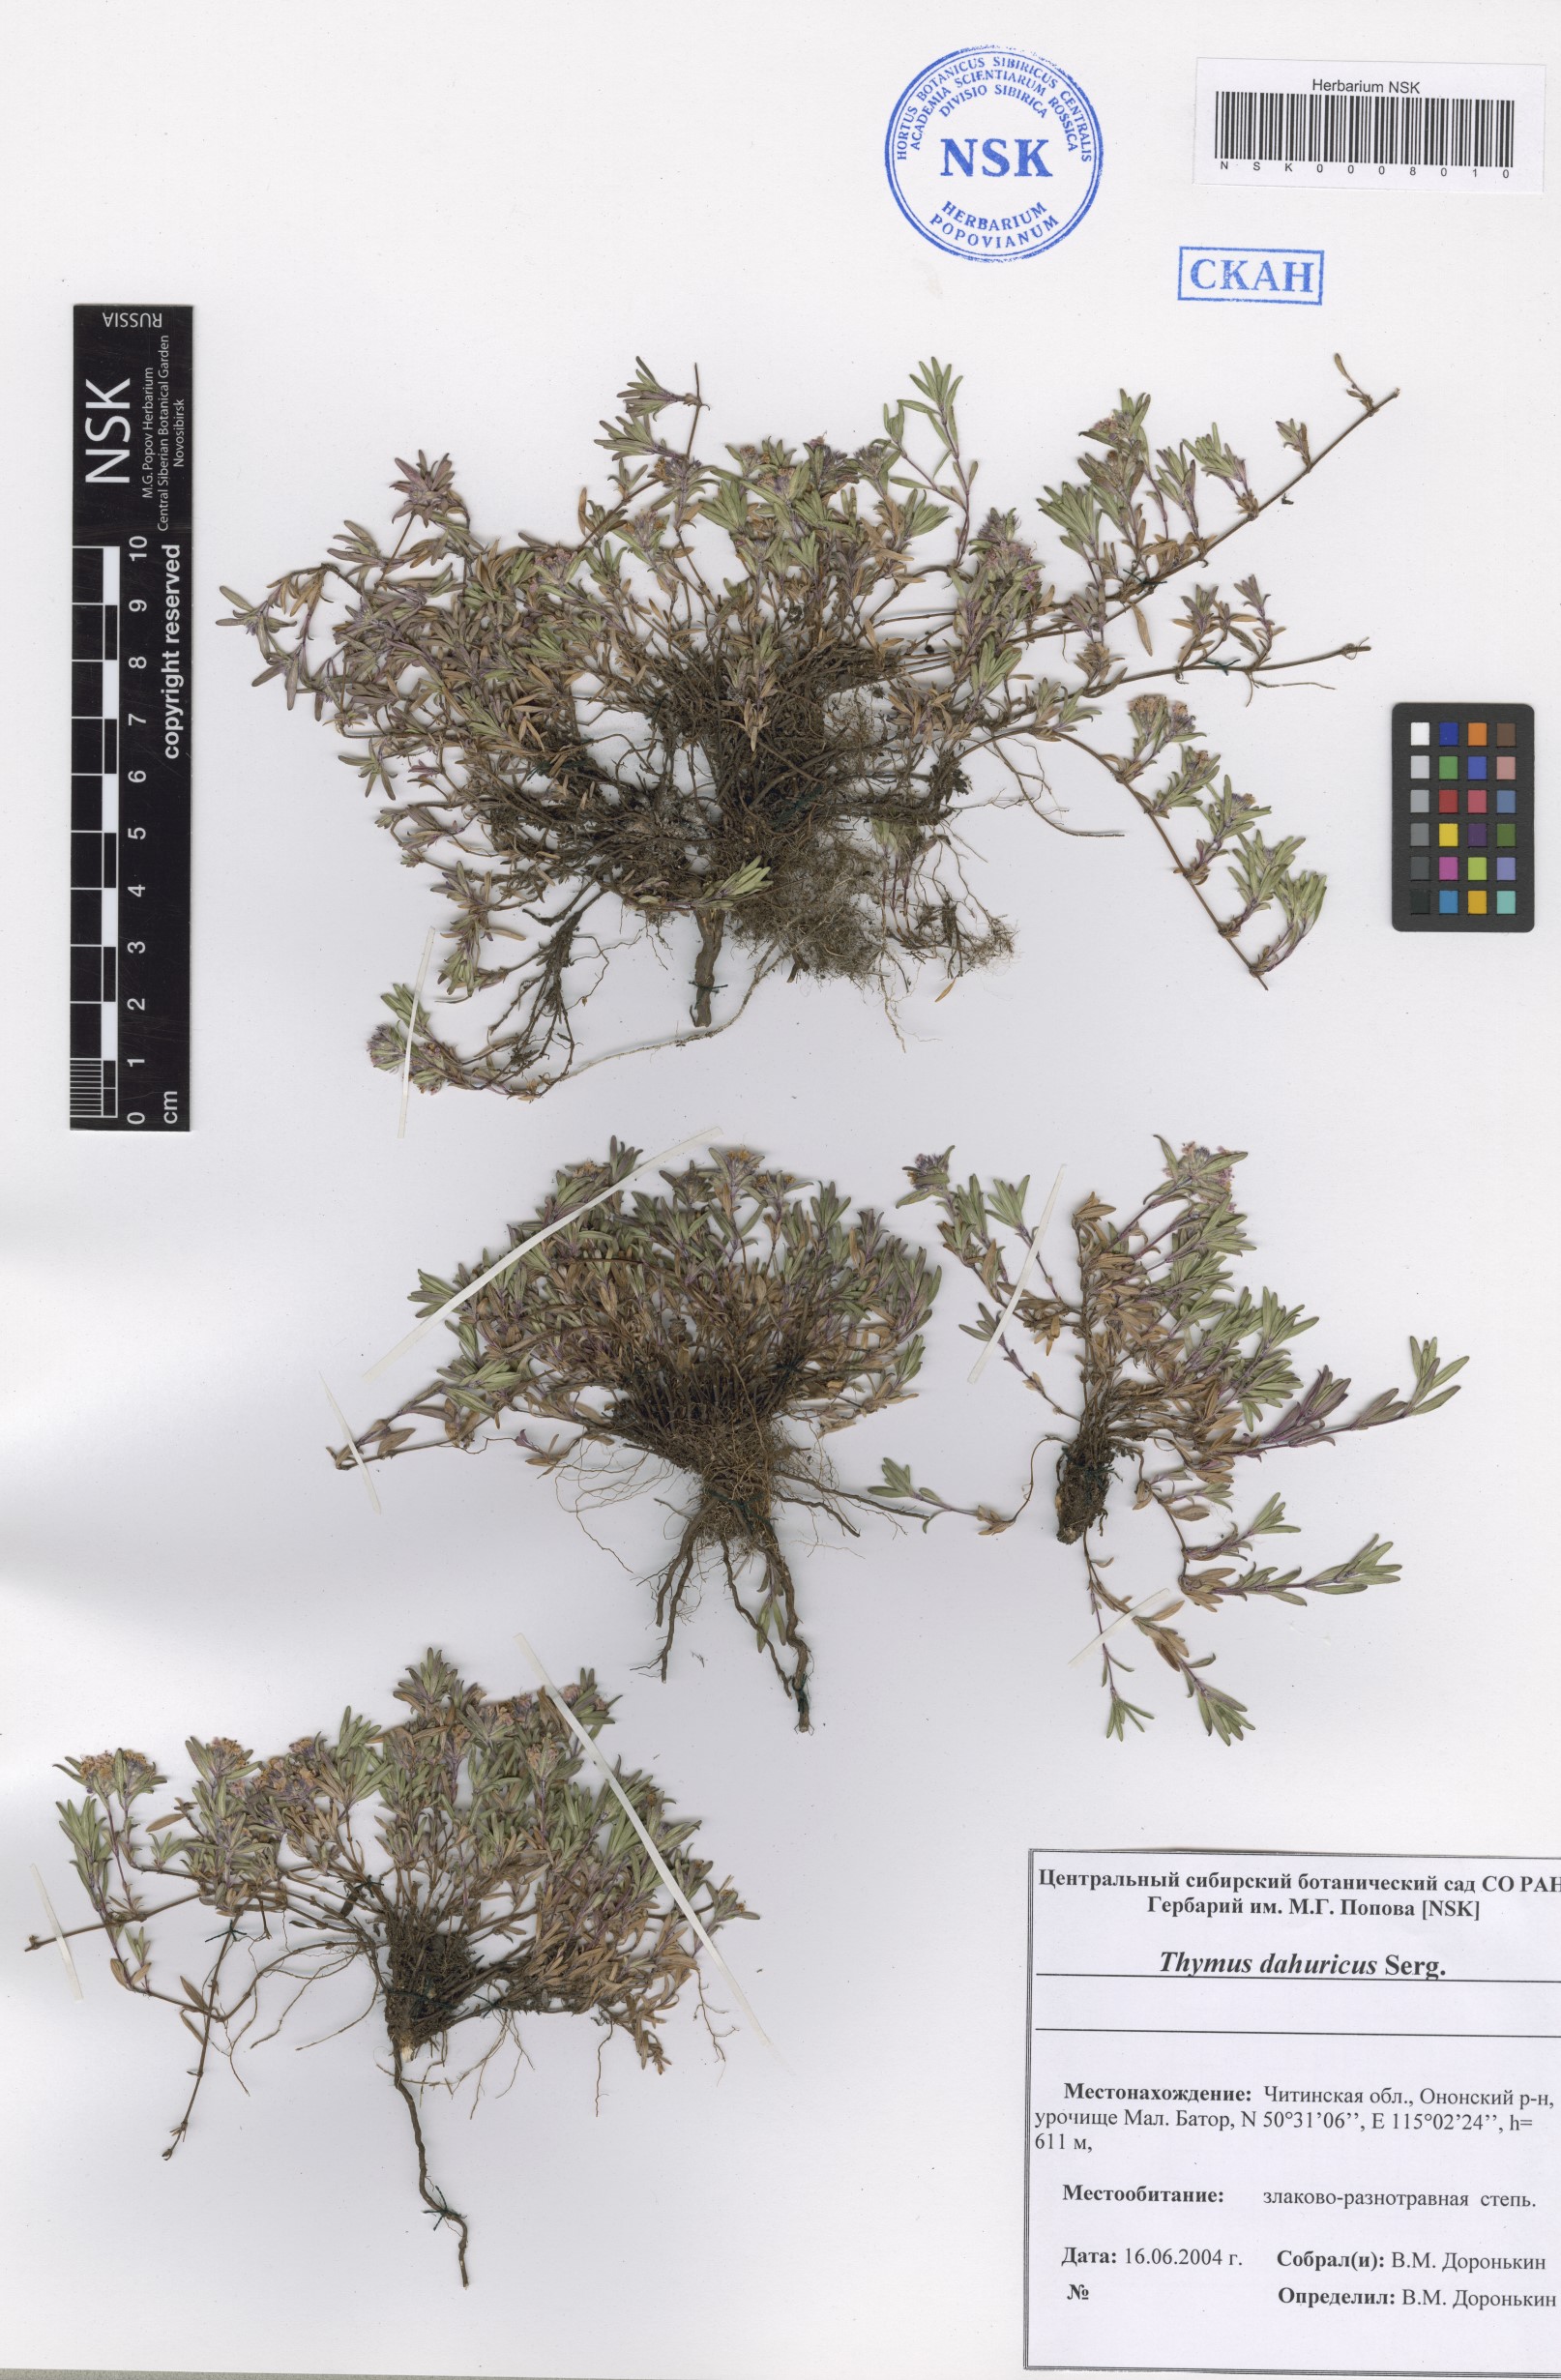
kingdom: Plantae
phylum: Tracheophyta
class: Magnoliopsida
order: Lamiales
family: Lamiaceae
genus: Thymus
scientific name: Thymus dahuricus
